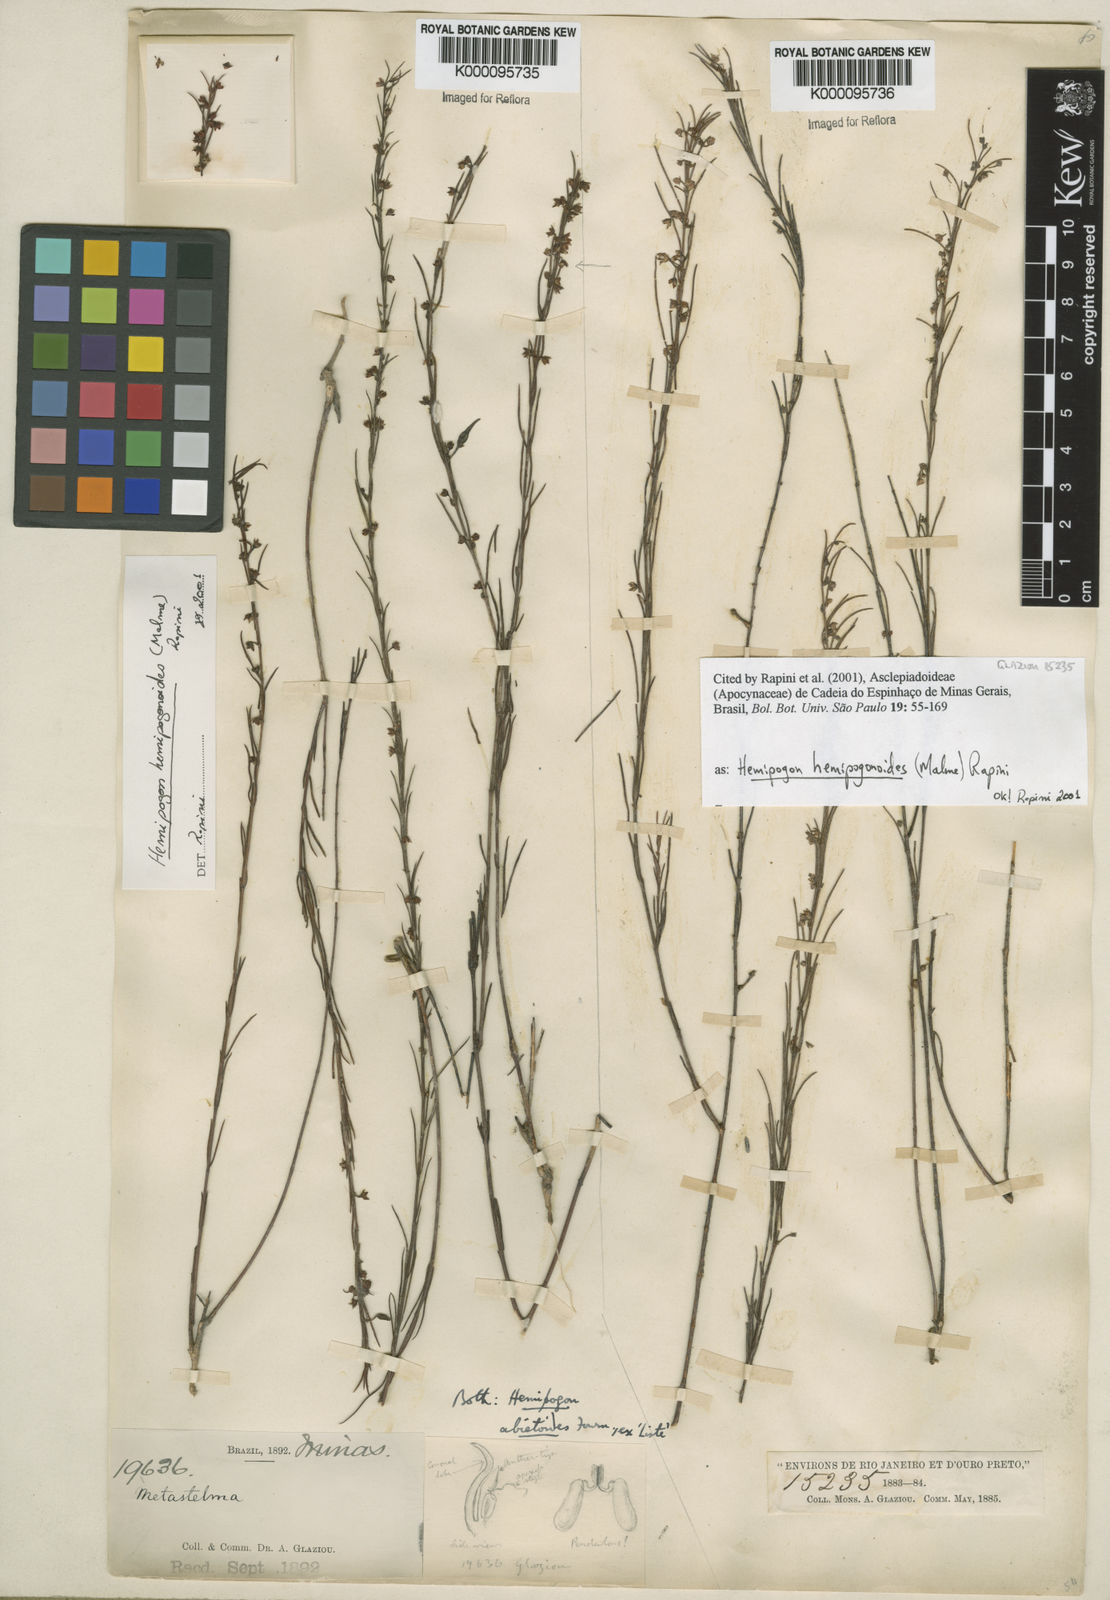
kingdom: Plantae
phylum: Tracheophyta
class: Magnoliopsida
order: Gentianales
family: Apocynaceae
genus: Hemipogon
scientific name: Hemipogon hemipogonoides
